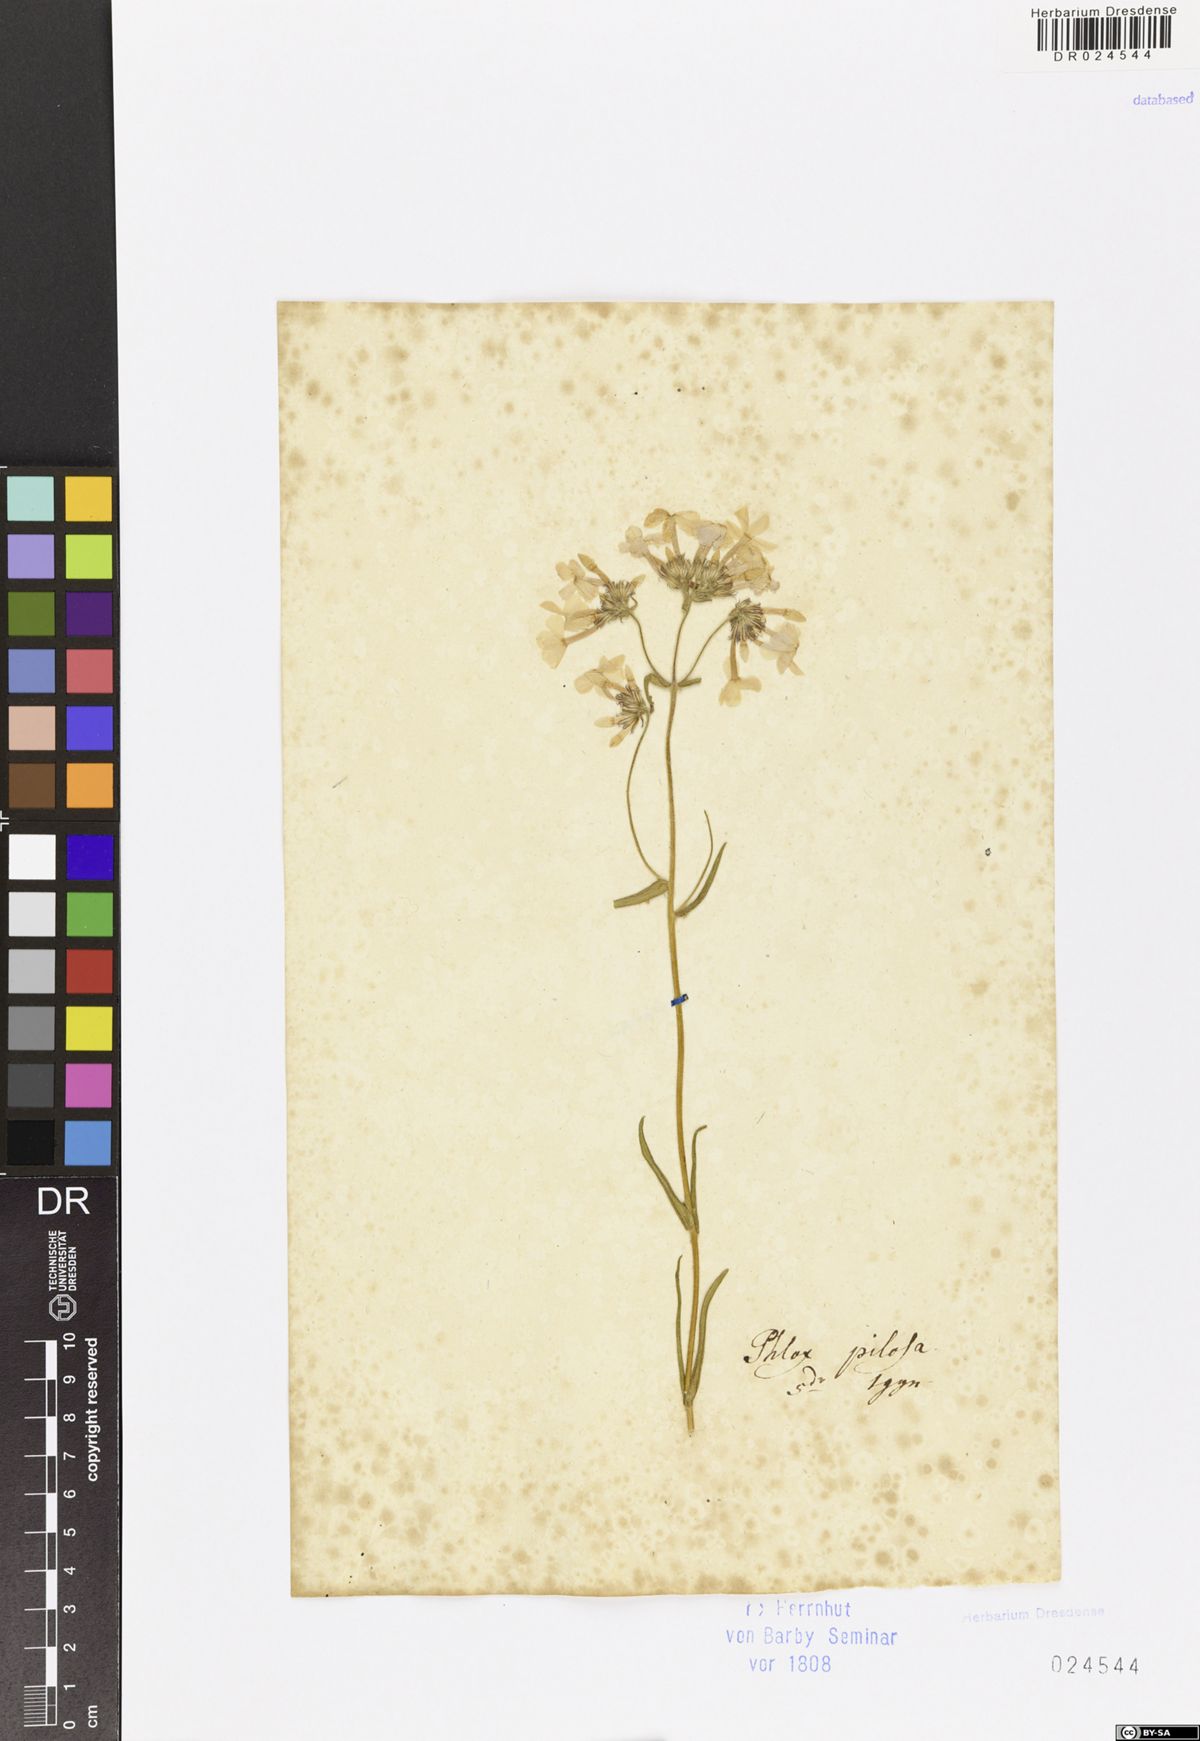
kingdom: Plantae
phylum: Tracheophyta
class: Magnoliopsida
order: Ericales
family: Polemoniaceae
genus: Phlox
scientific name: Phlox pilosa
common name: Prairie phlox
